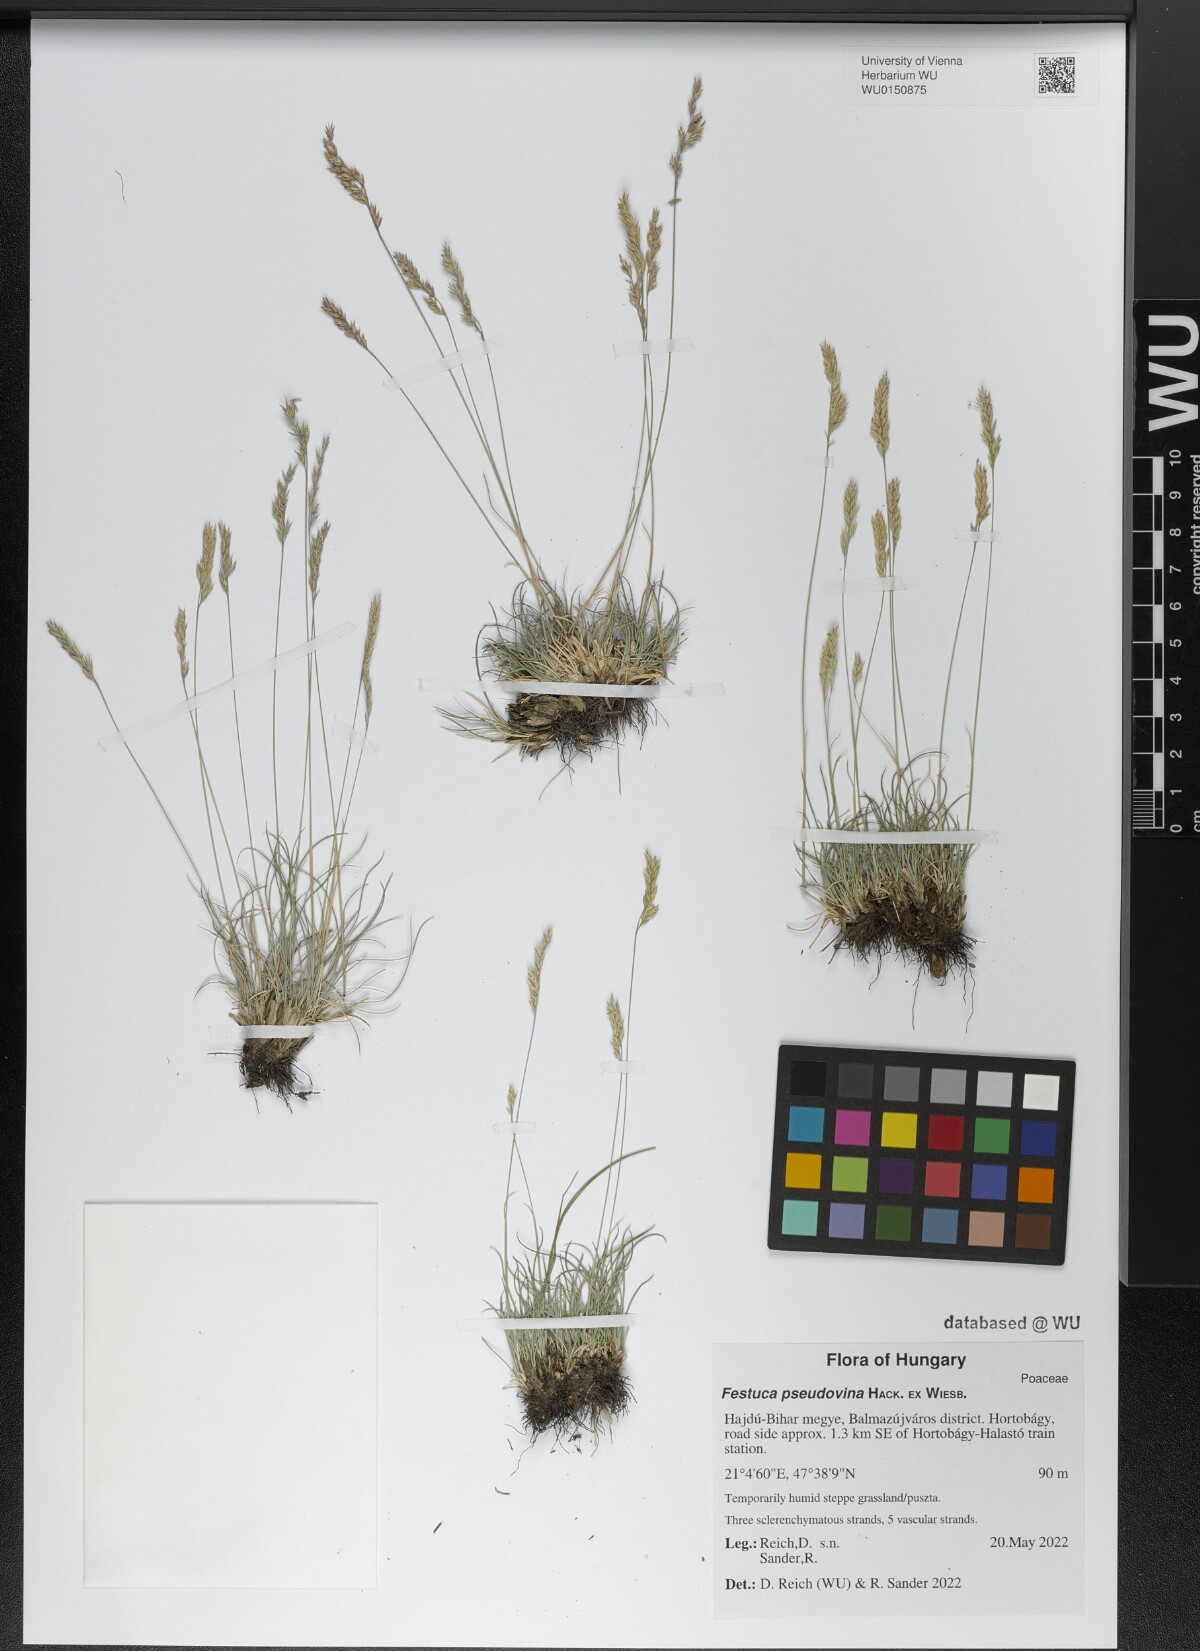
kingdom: Plantae
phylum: Tracheophyta
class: Liliopsida
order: Poales
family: Poaceae
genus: Festuca
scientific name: Festuca pulchra
